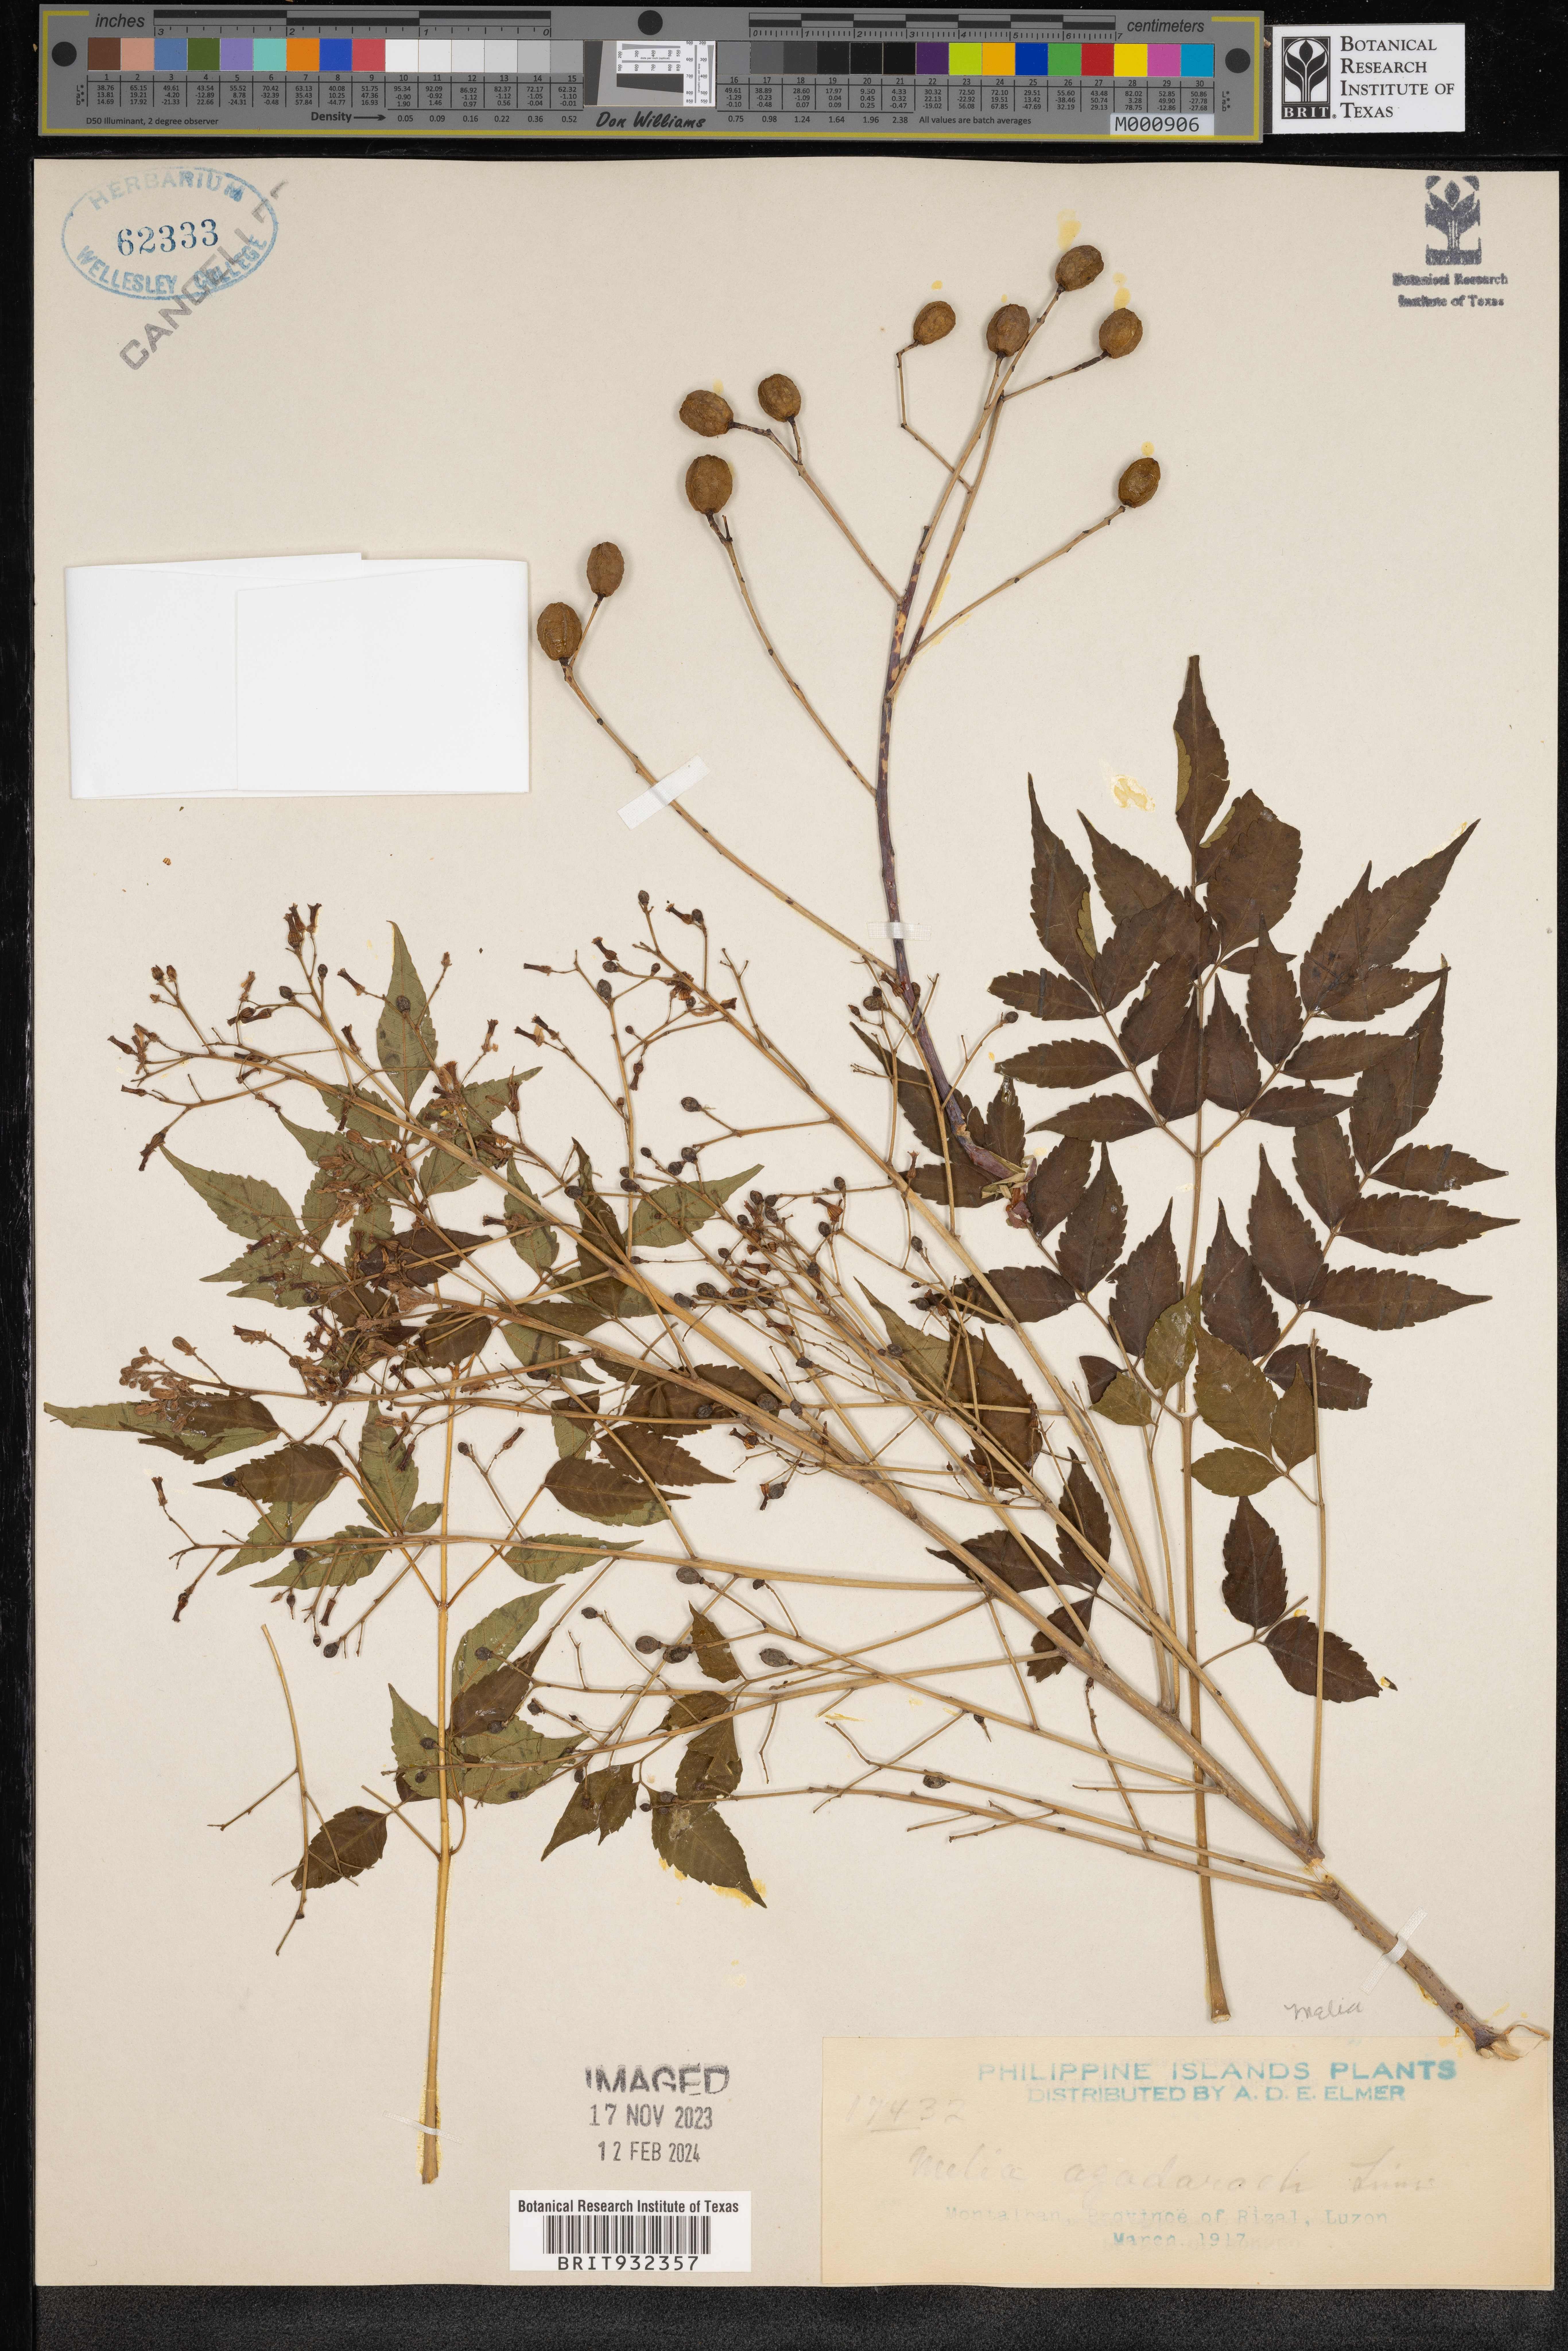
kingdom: Plantae
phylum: Tracheophyta
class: Magnoliopsida
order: Sapindales
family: Meliaceae
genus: Melia
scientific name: Melia
